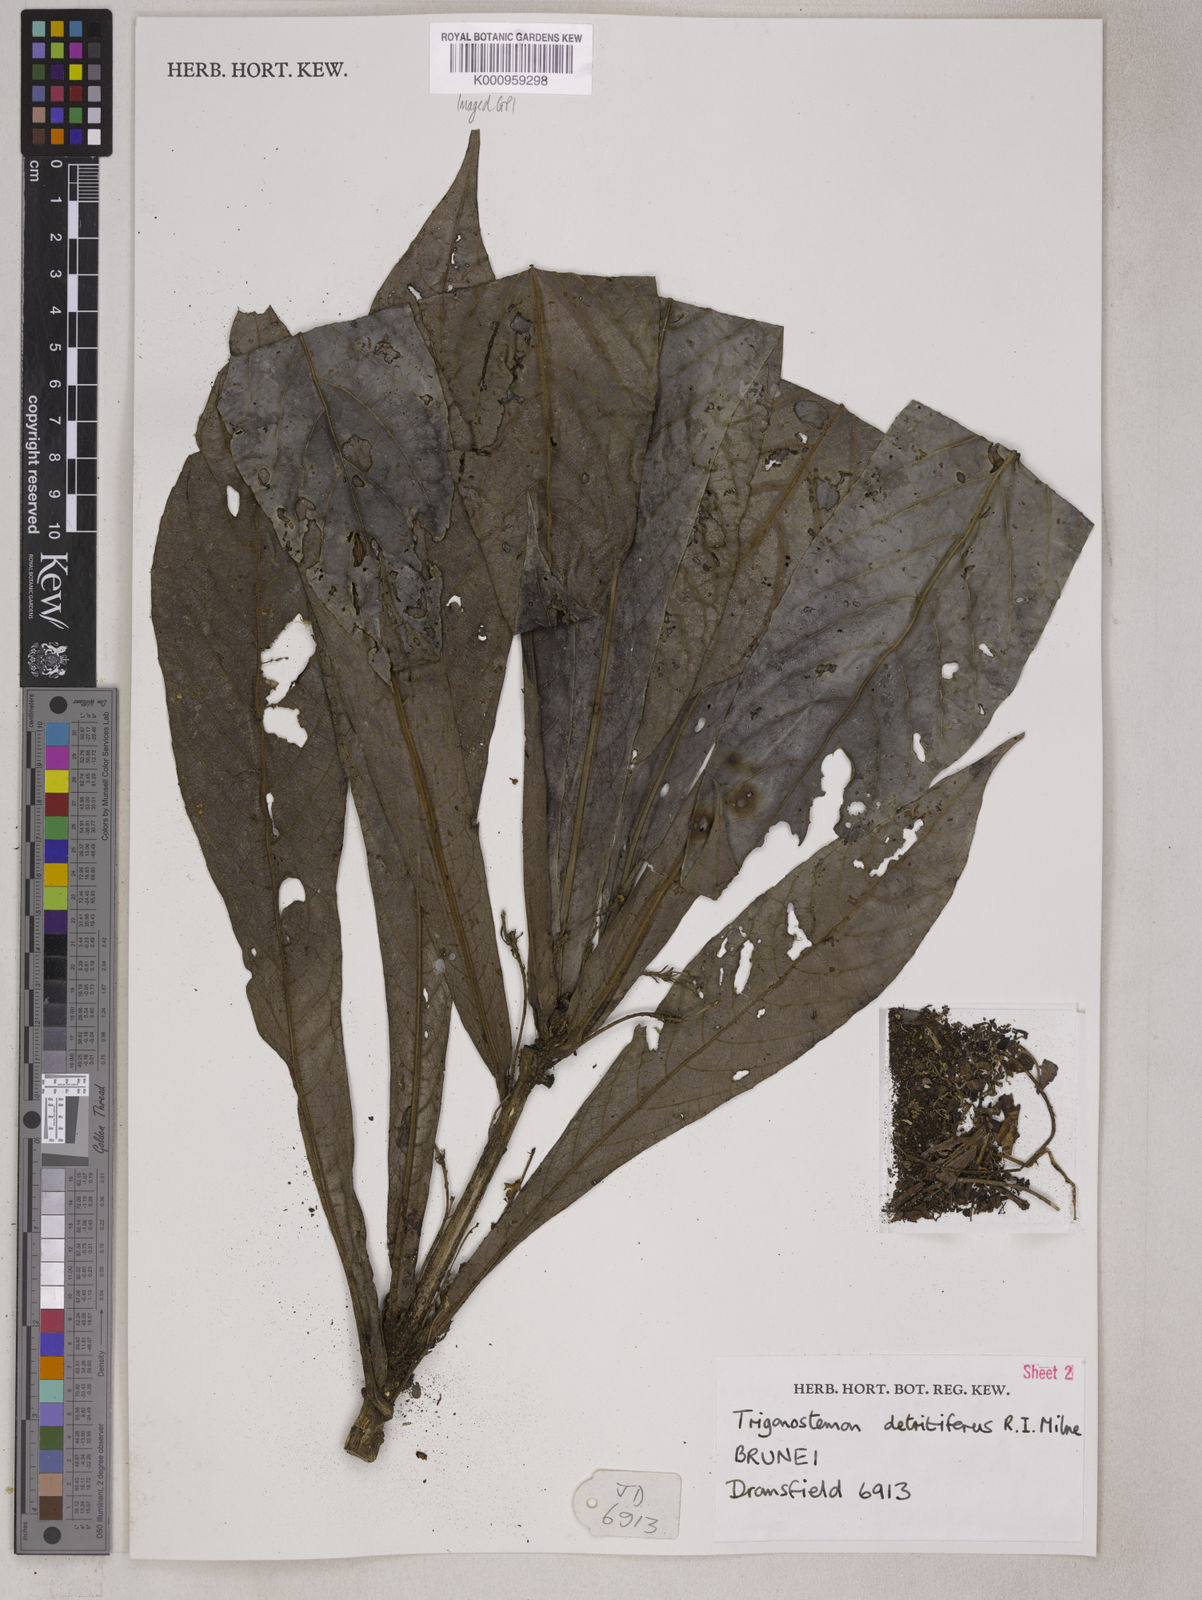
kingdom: Plantae
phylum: Tracheophyta
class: Magnoliopsida
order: Malpighiales
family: Euphorbiaceae
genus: Trigonostemon
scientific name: Trigonostemon
